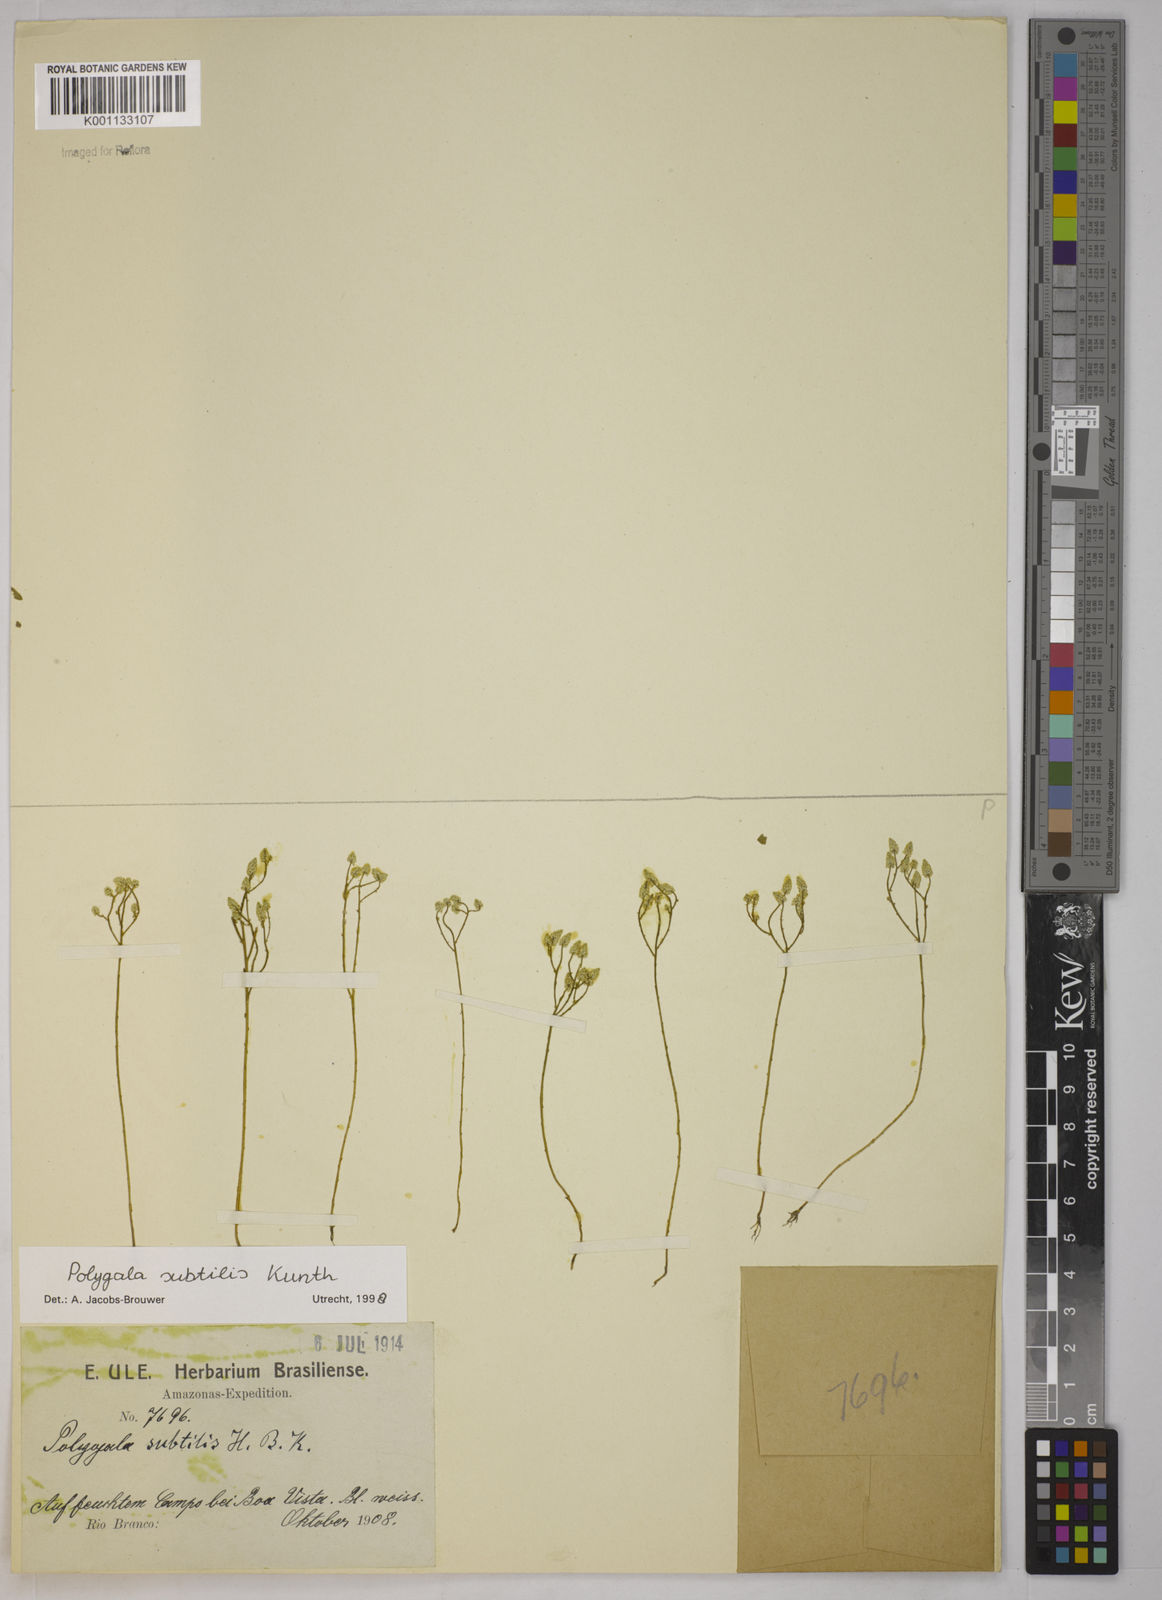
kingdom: Plantae
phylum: Tracheophyta
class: Magnoliopsida
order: Fabales
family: Polygalaceae
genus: Polygala
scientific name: Polygala subtilis
